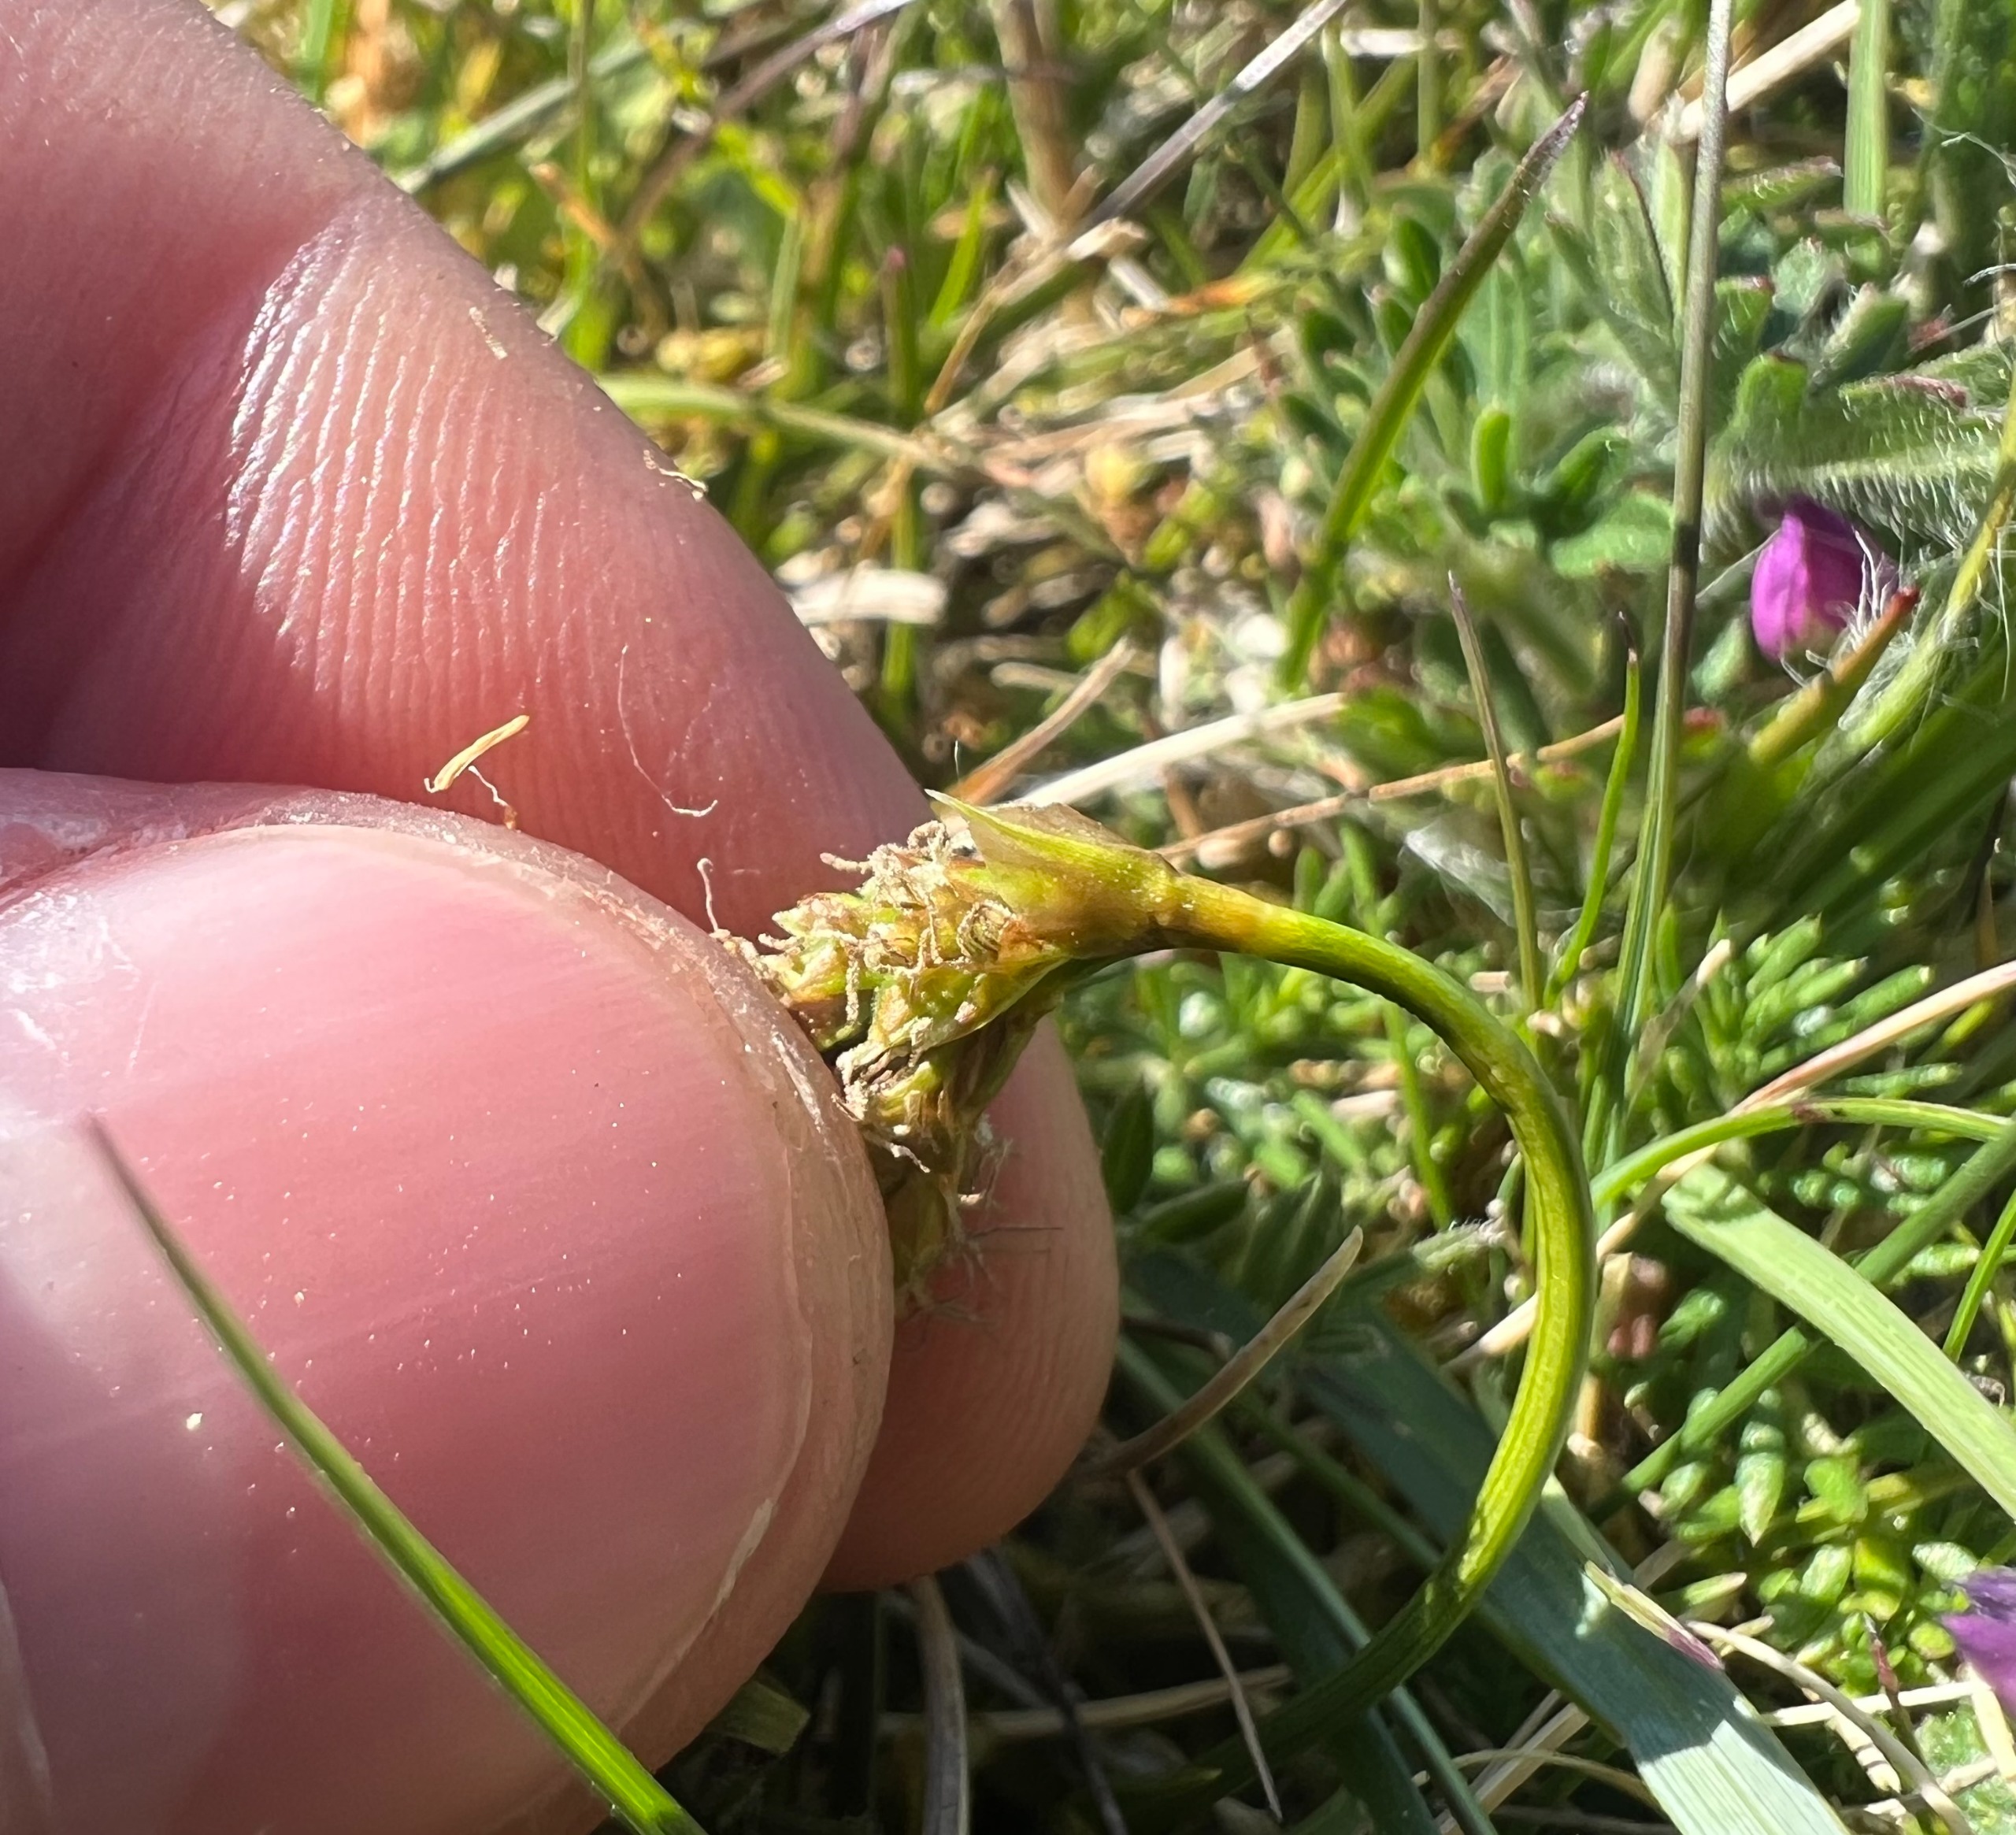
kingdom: Plantae
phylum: Tracheophyta
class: Liliopsida
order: Poales
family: Cyperaceae
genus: Carex
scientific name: Carex ericetorum
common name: Lyng-star
